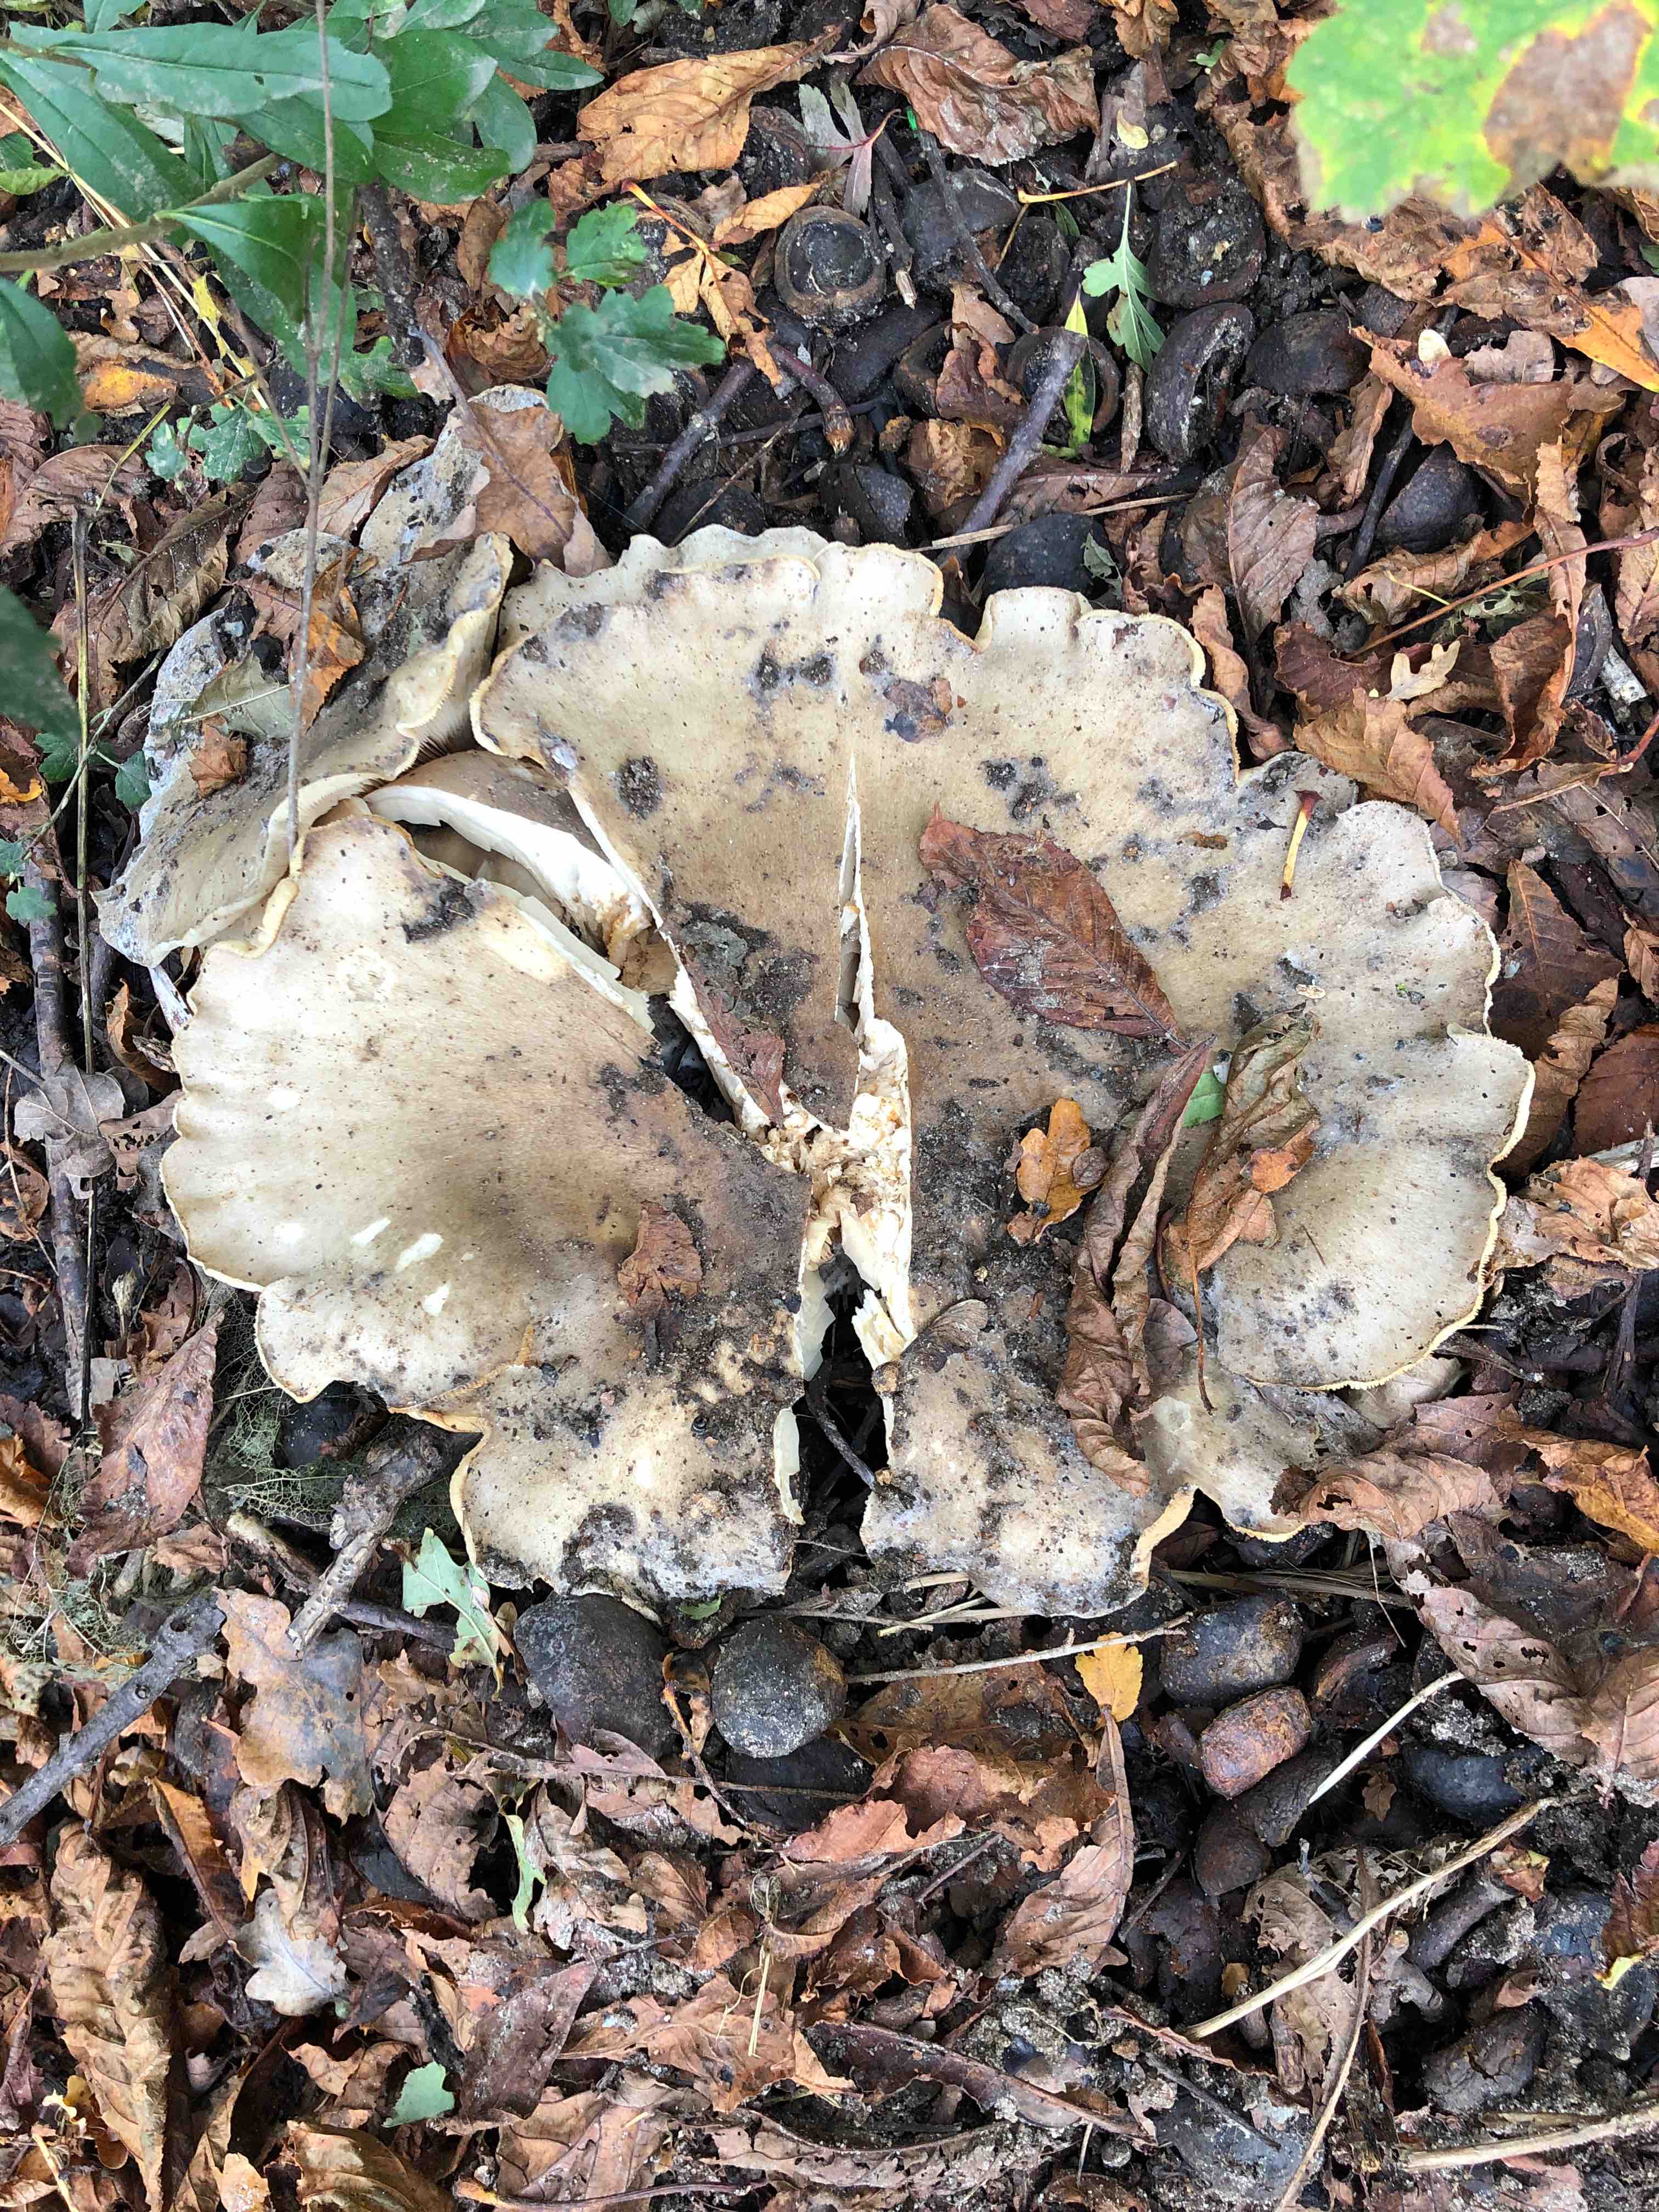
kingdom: Fungi
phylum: Basidiomycota
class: Agaricomycetes
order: Agaricales
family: Tricholomataceae
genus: Clitocybe
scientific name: Clitocybe nebularis
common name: tåge-tragthat
